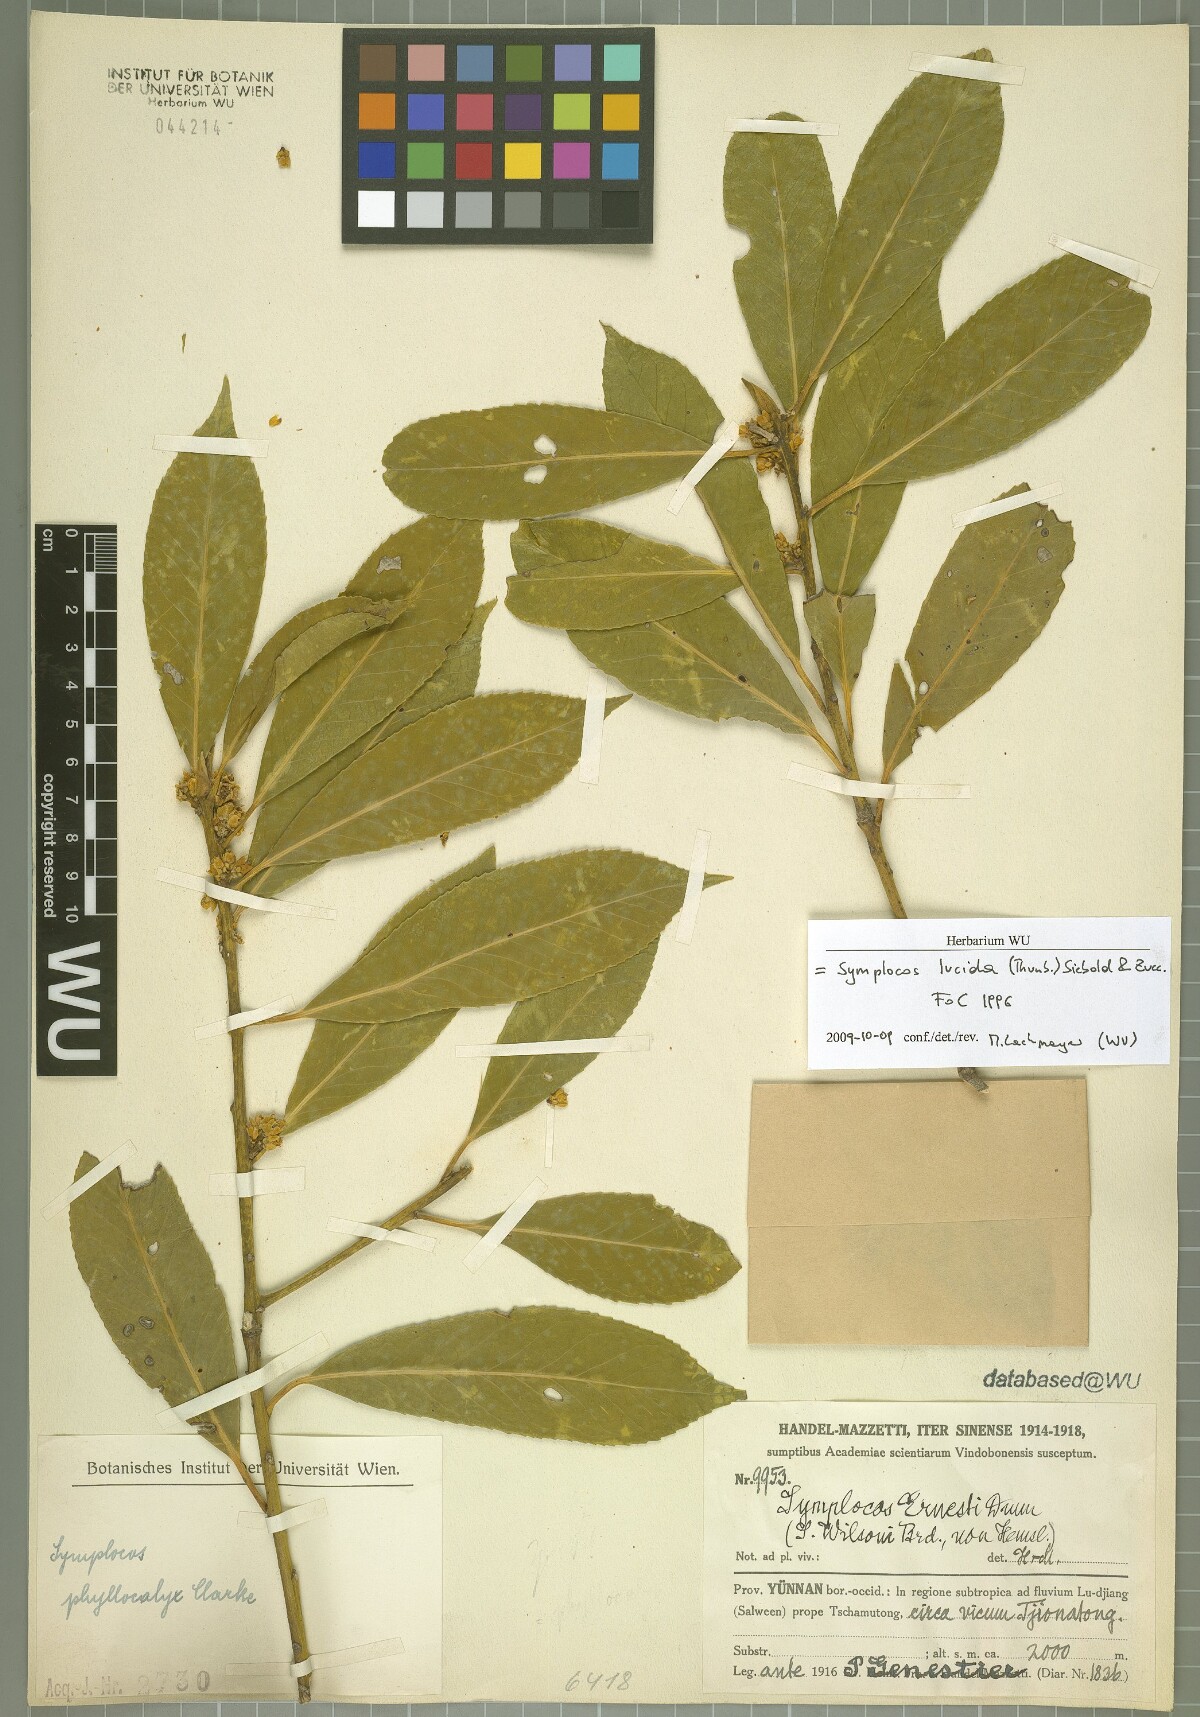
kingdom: Plantae
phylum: Tracheophyta
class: Magnoliopsida
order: Ericales
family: Symplocaceae
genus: Symplocos
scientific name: Symplocos nakaharae
